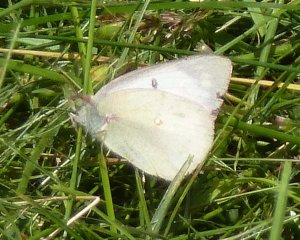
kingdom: Animalia
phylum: Arthropoda
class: Insecta
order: Lepidoptera
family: Pieridae
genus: Colias
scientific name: Colias philodice
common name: Clouded Sulphur
